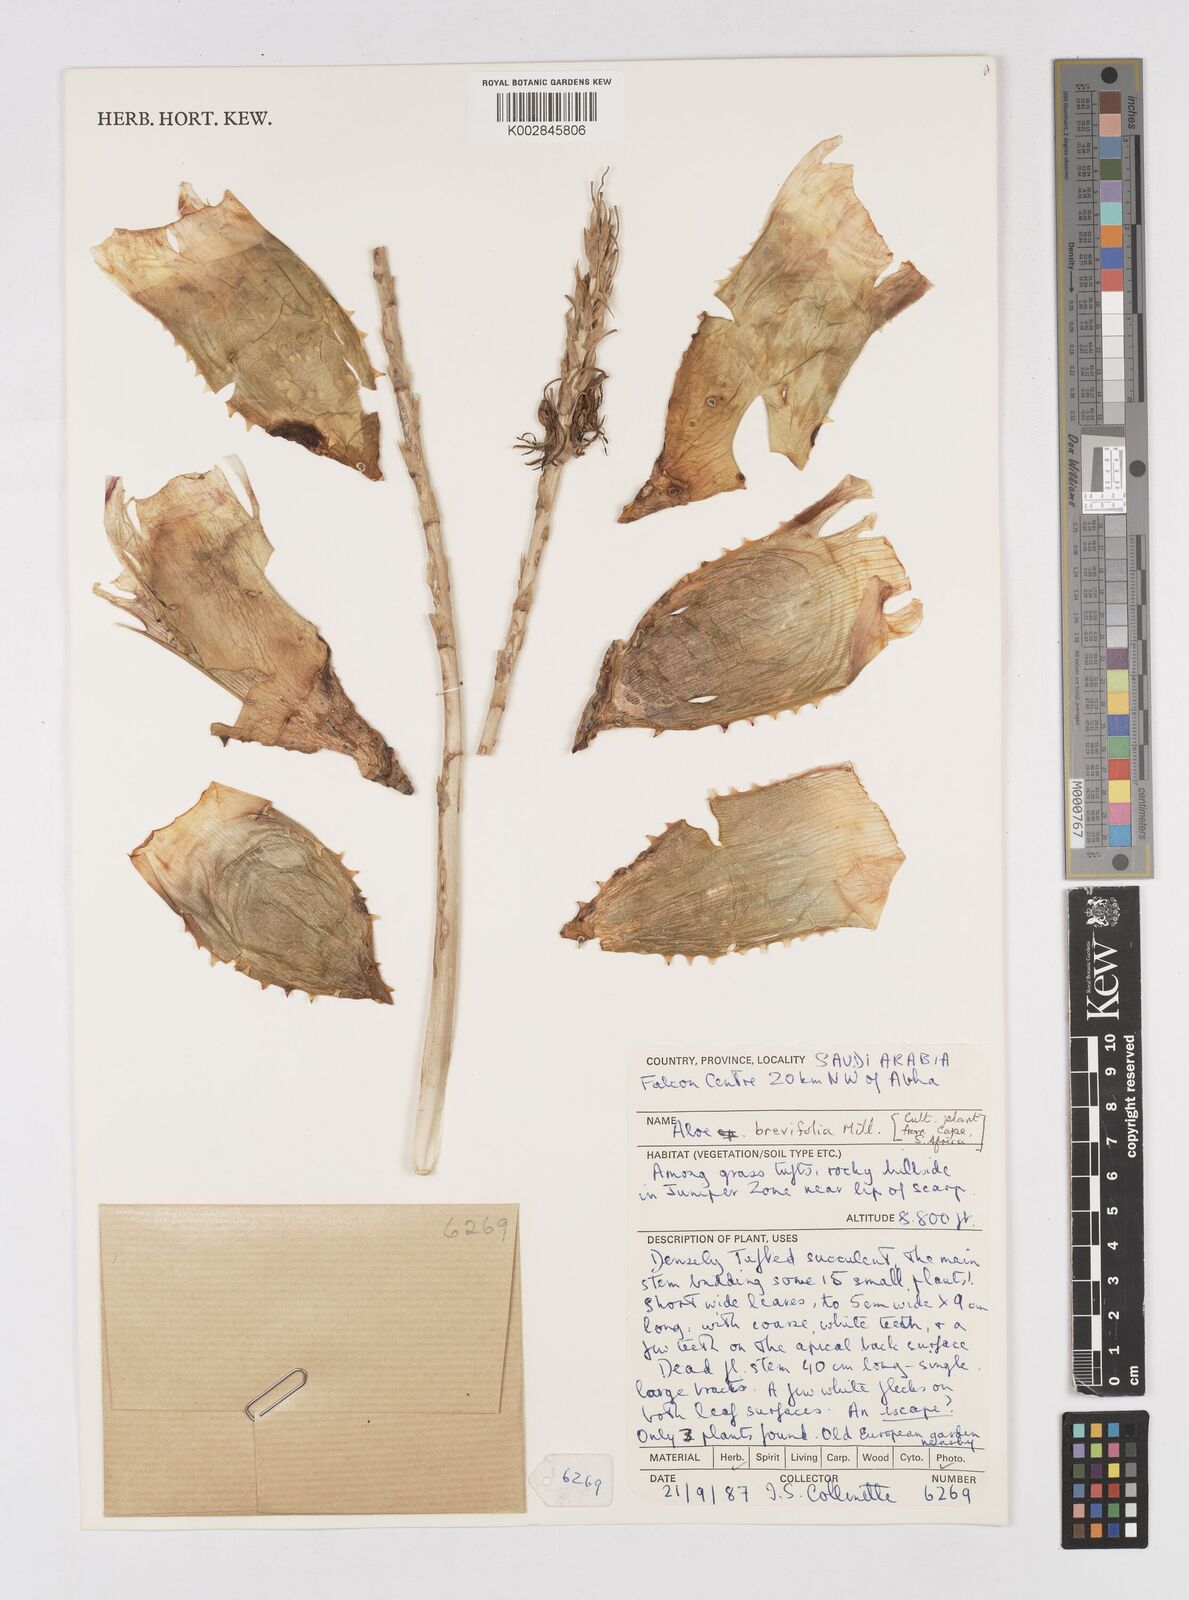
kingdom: Plantae
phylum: Tracheophyta
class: Liliopsida
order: Asparagales
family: Asphodelaceae
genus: Aloe
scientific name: Aloe brevifolia
